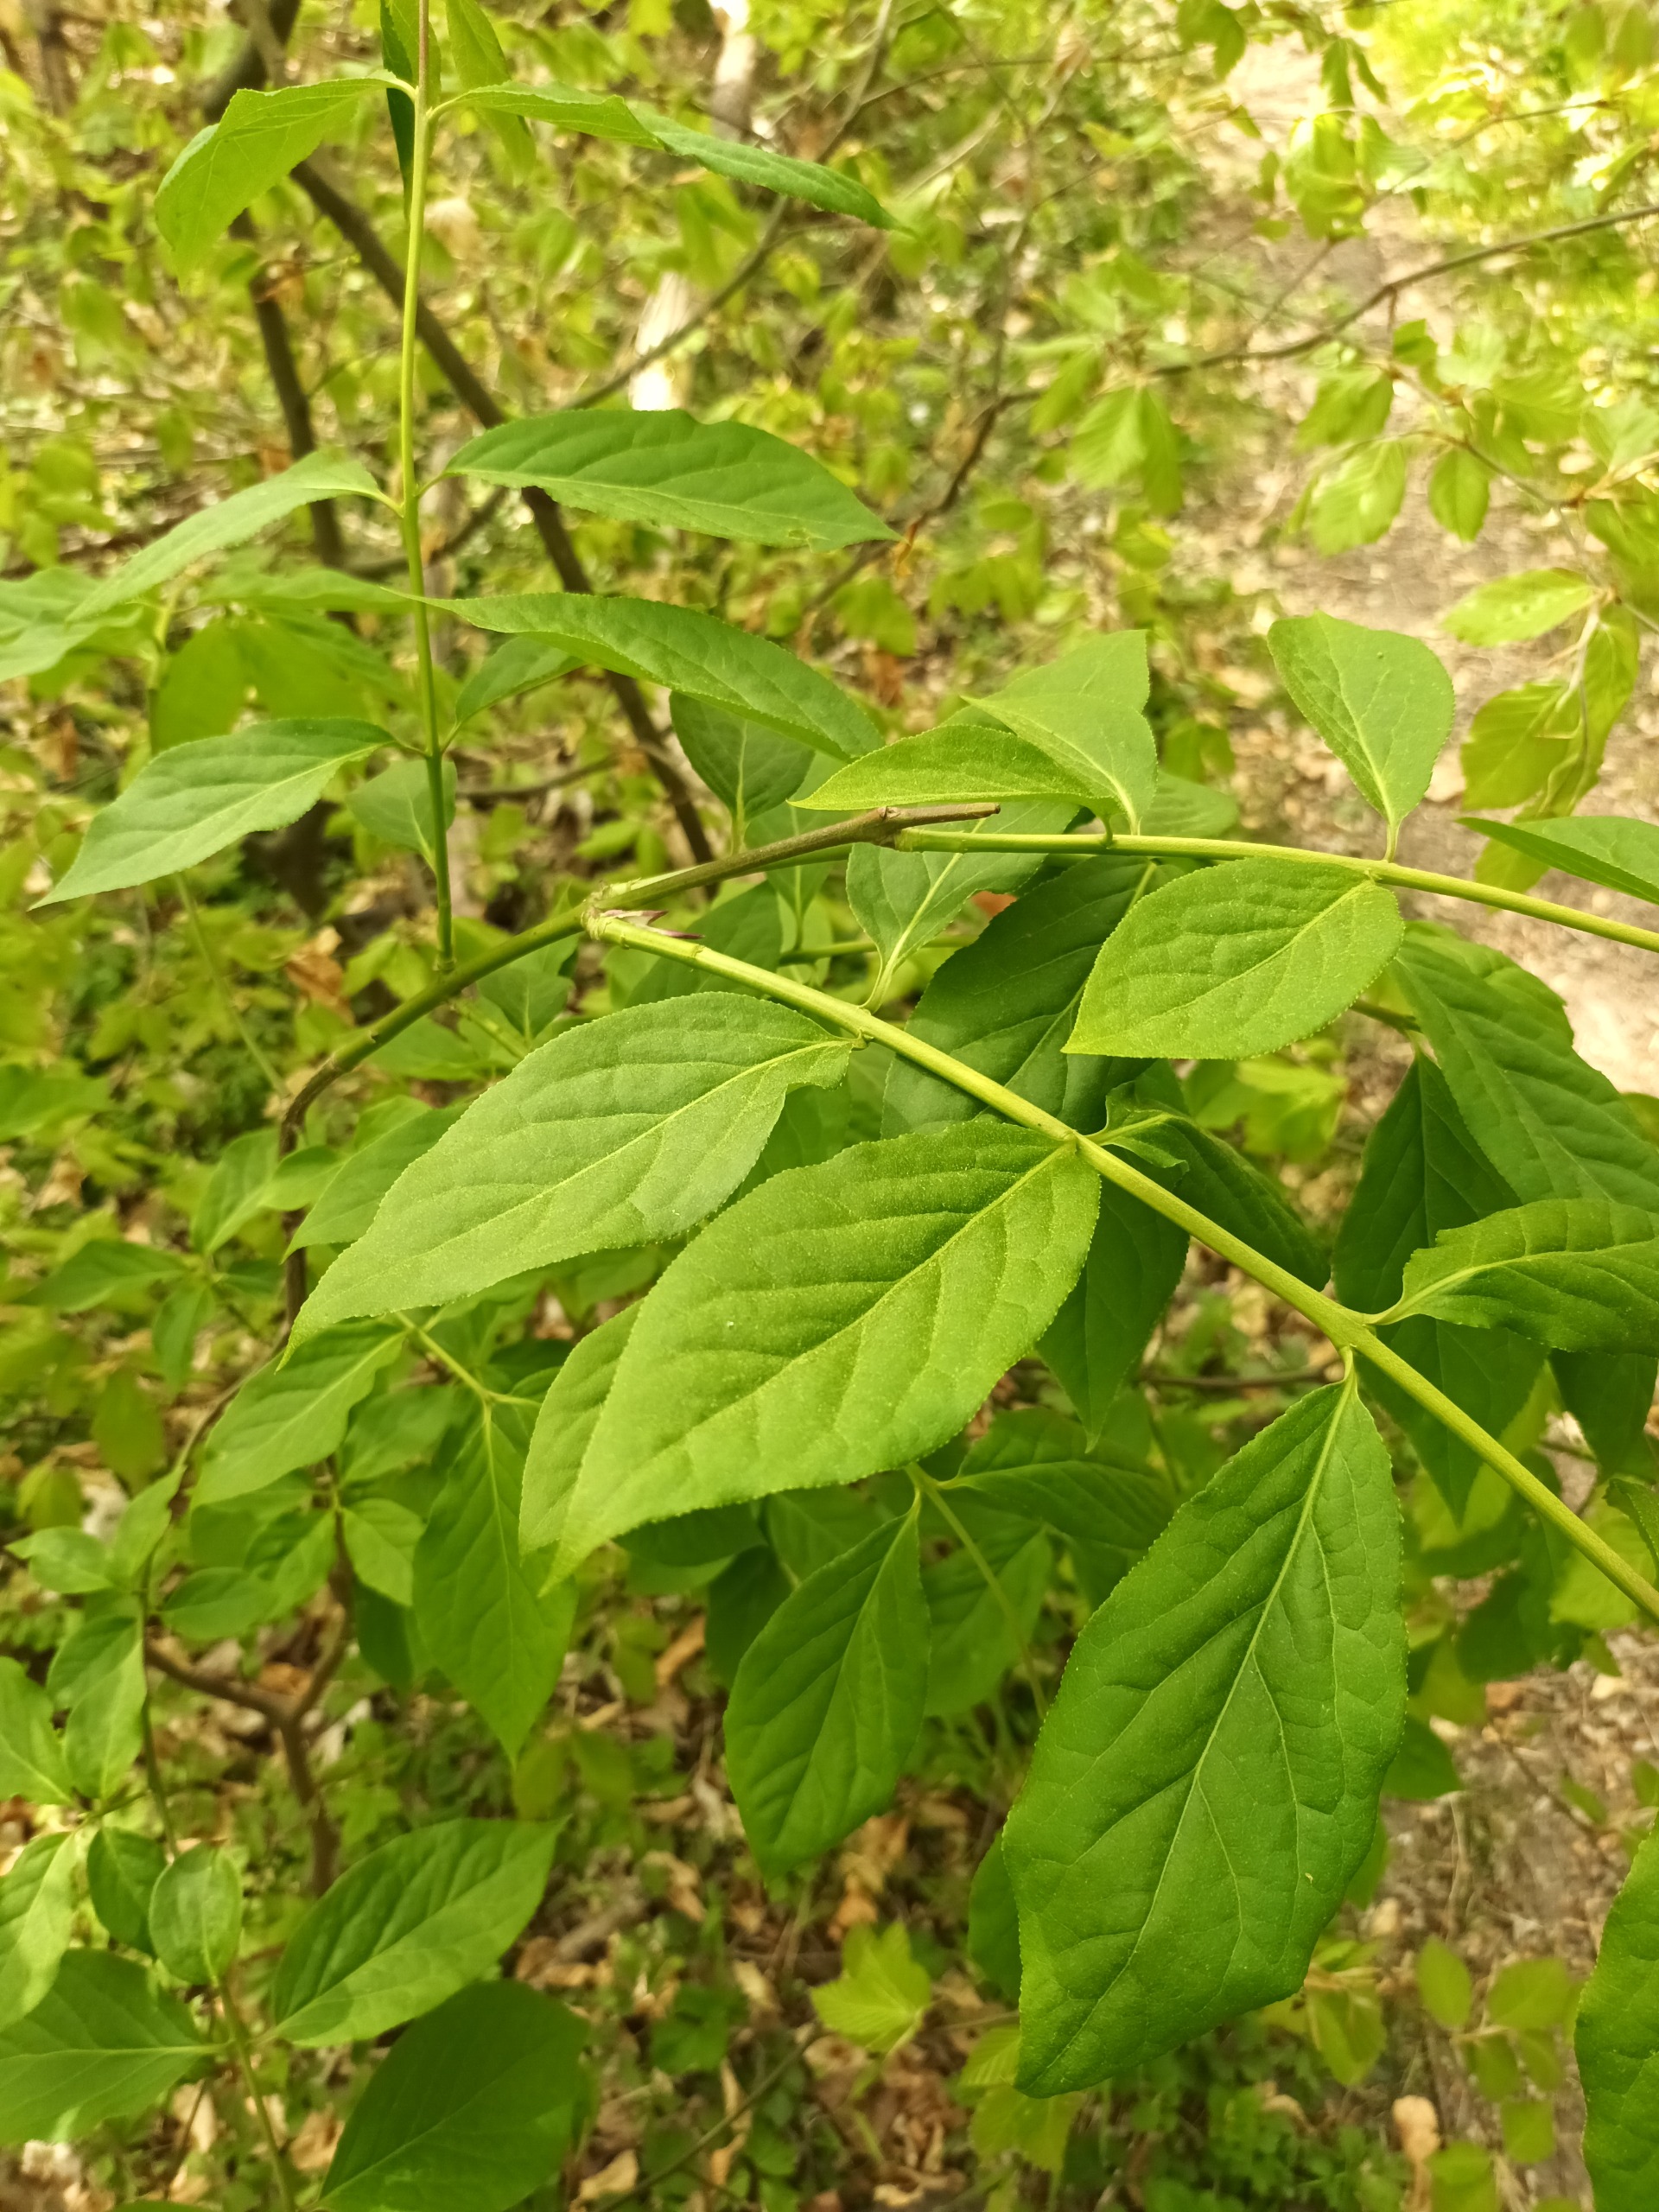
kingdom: Plantae
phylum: Tracheophyta
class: Magnoliopsida
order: Celastrales
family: Celastraceae
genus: Euonymus
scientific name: Euonymus latifolius
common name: Storbladet benved
